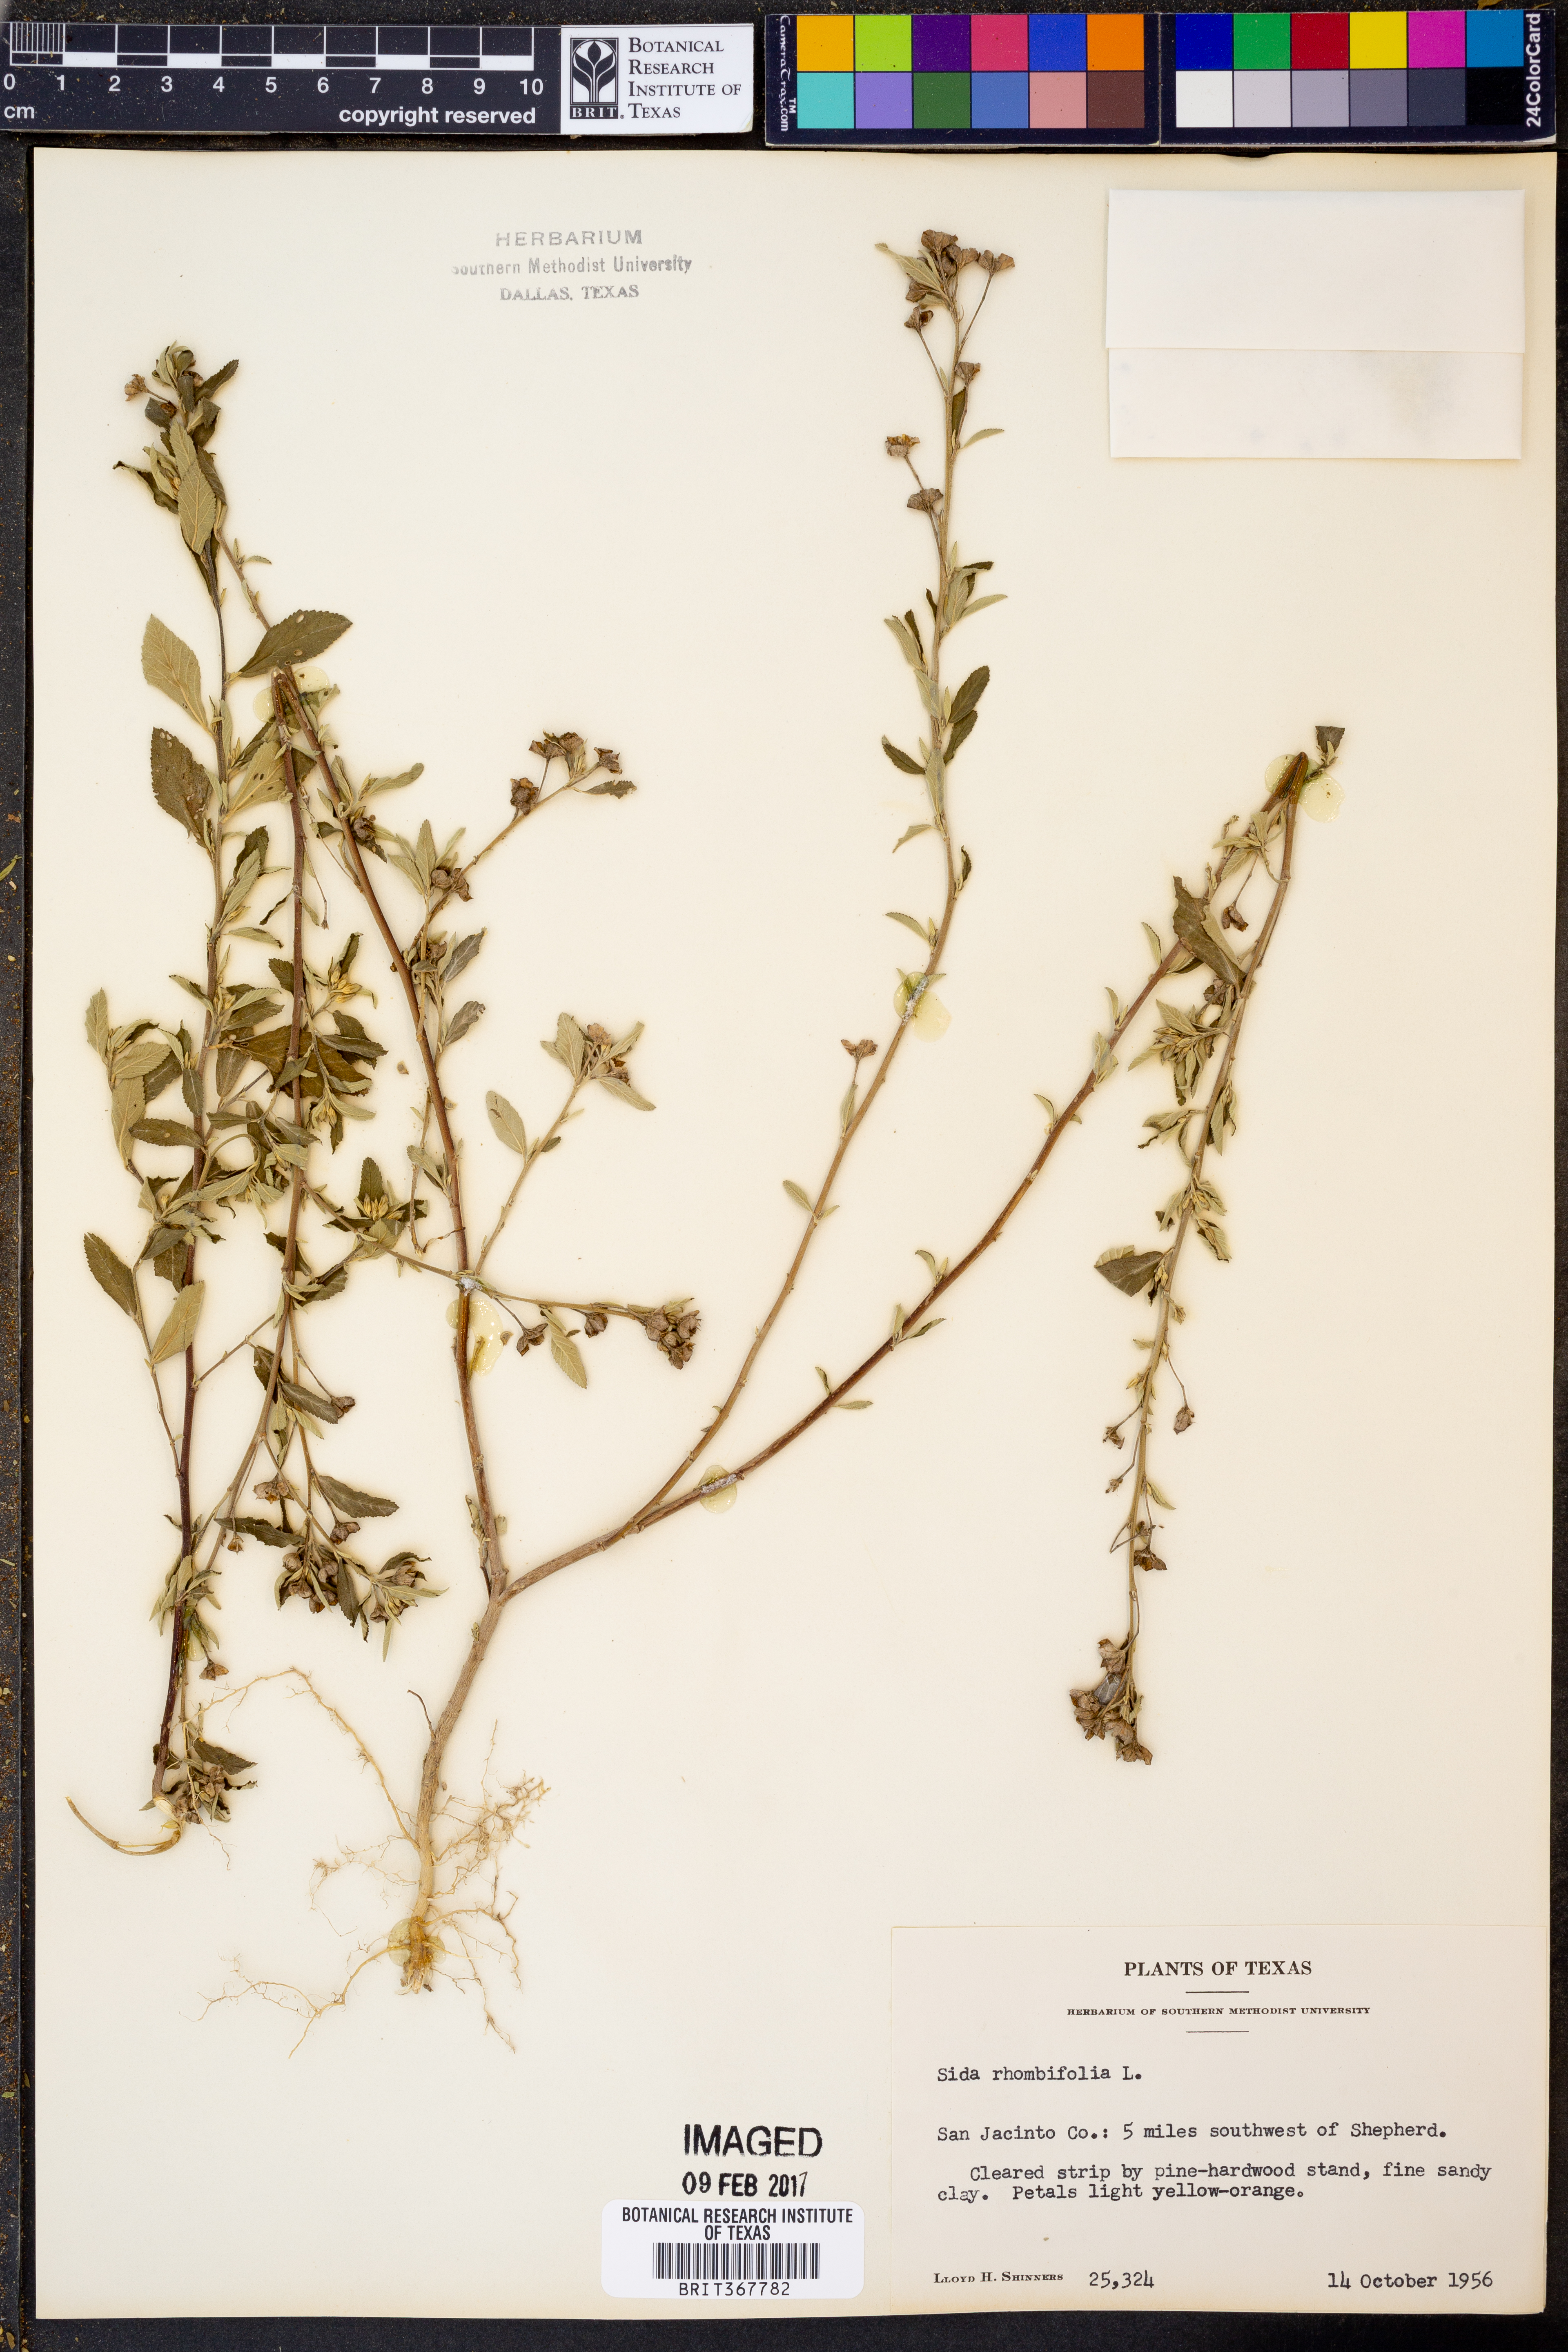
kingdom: Plantae
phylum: Tracheophyta
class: Magnoliopsida
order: Malvales
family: Malvaceae
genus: Sida
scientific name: Sida rhombifolia
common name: Queensland-hemp
